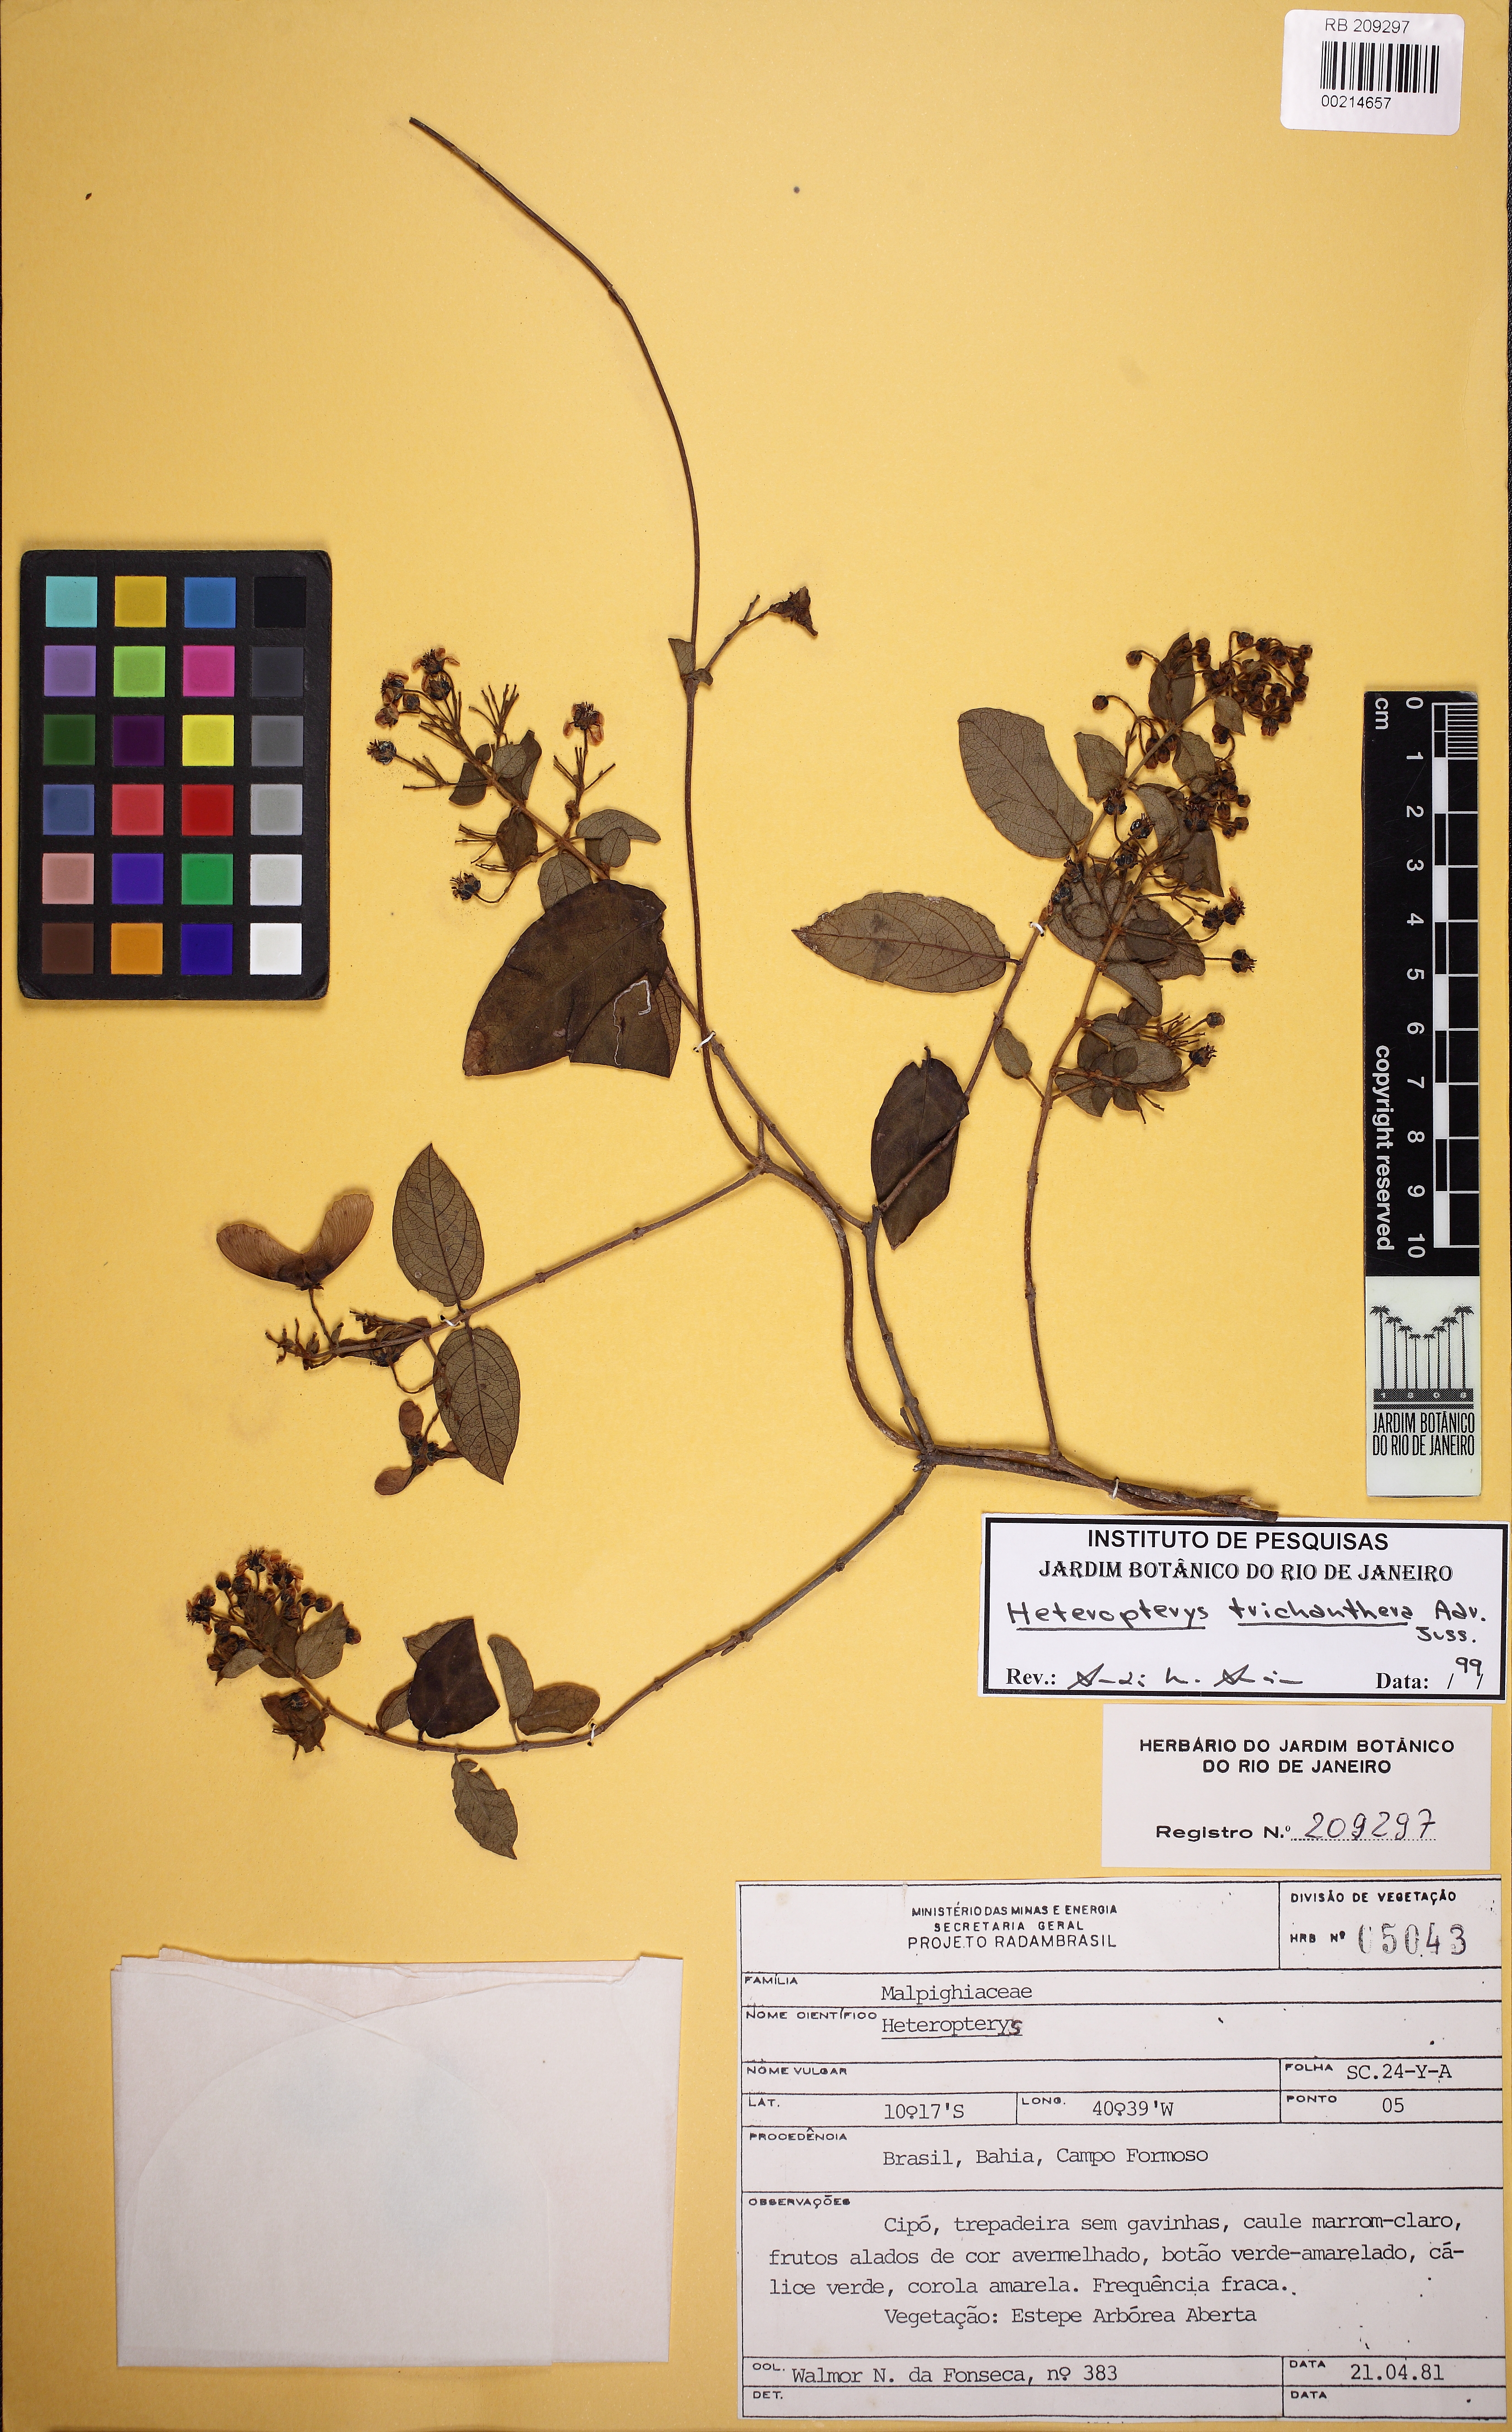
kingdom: Plantae
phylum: Tracheophyta
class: Magnoliopsida
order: Malpighiales
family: Malpighiaceae
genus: Heteropterys
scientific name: Heteropterys trichanthera
